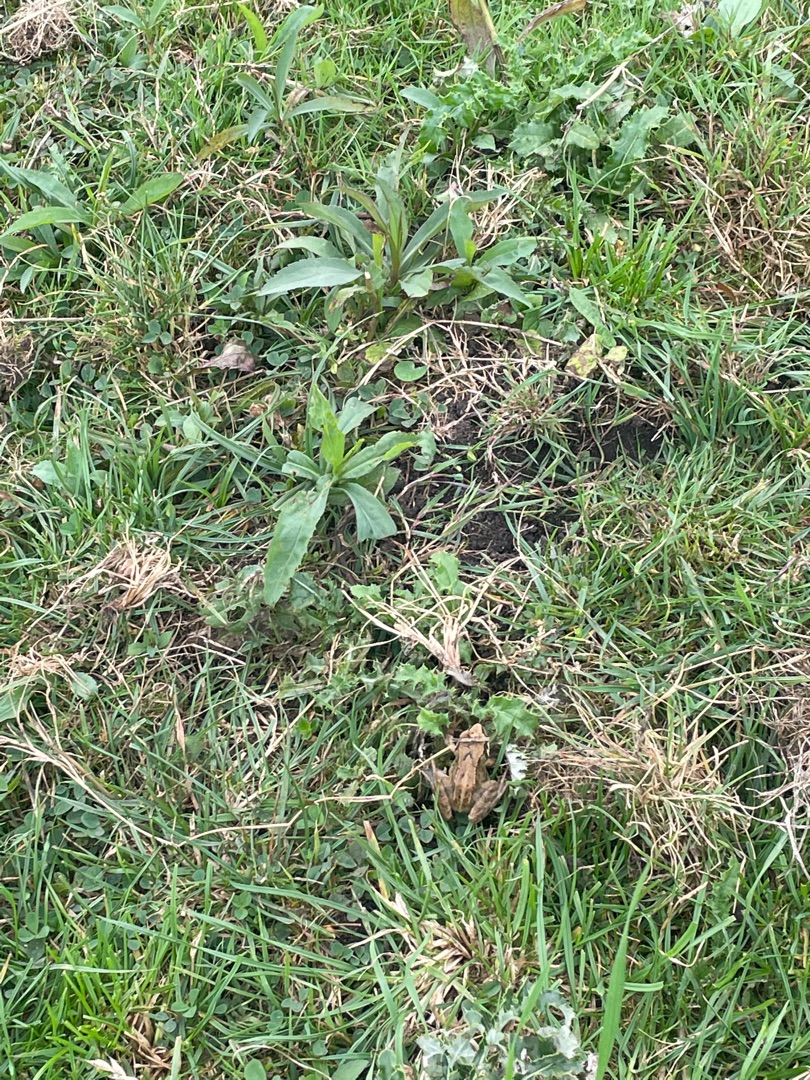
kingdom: Animalia
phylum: Chordata
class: Amphibia
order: Anura
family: Ranidae
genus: Rana
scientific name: Rana temporaria
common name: Butsnudet frø
